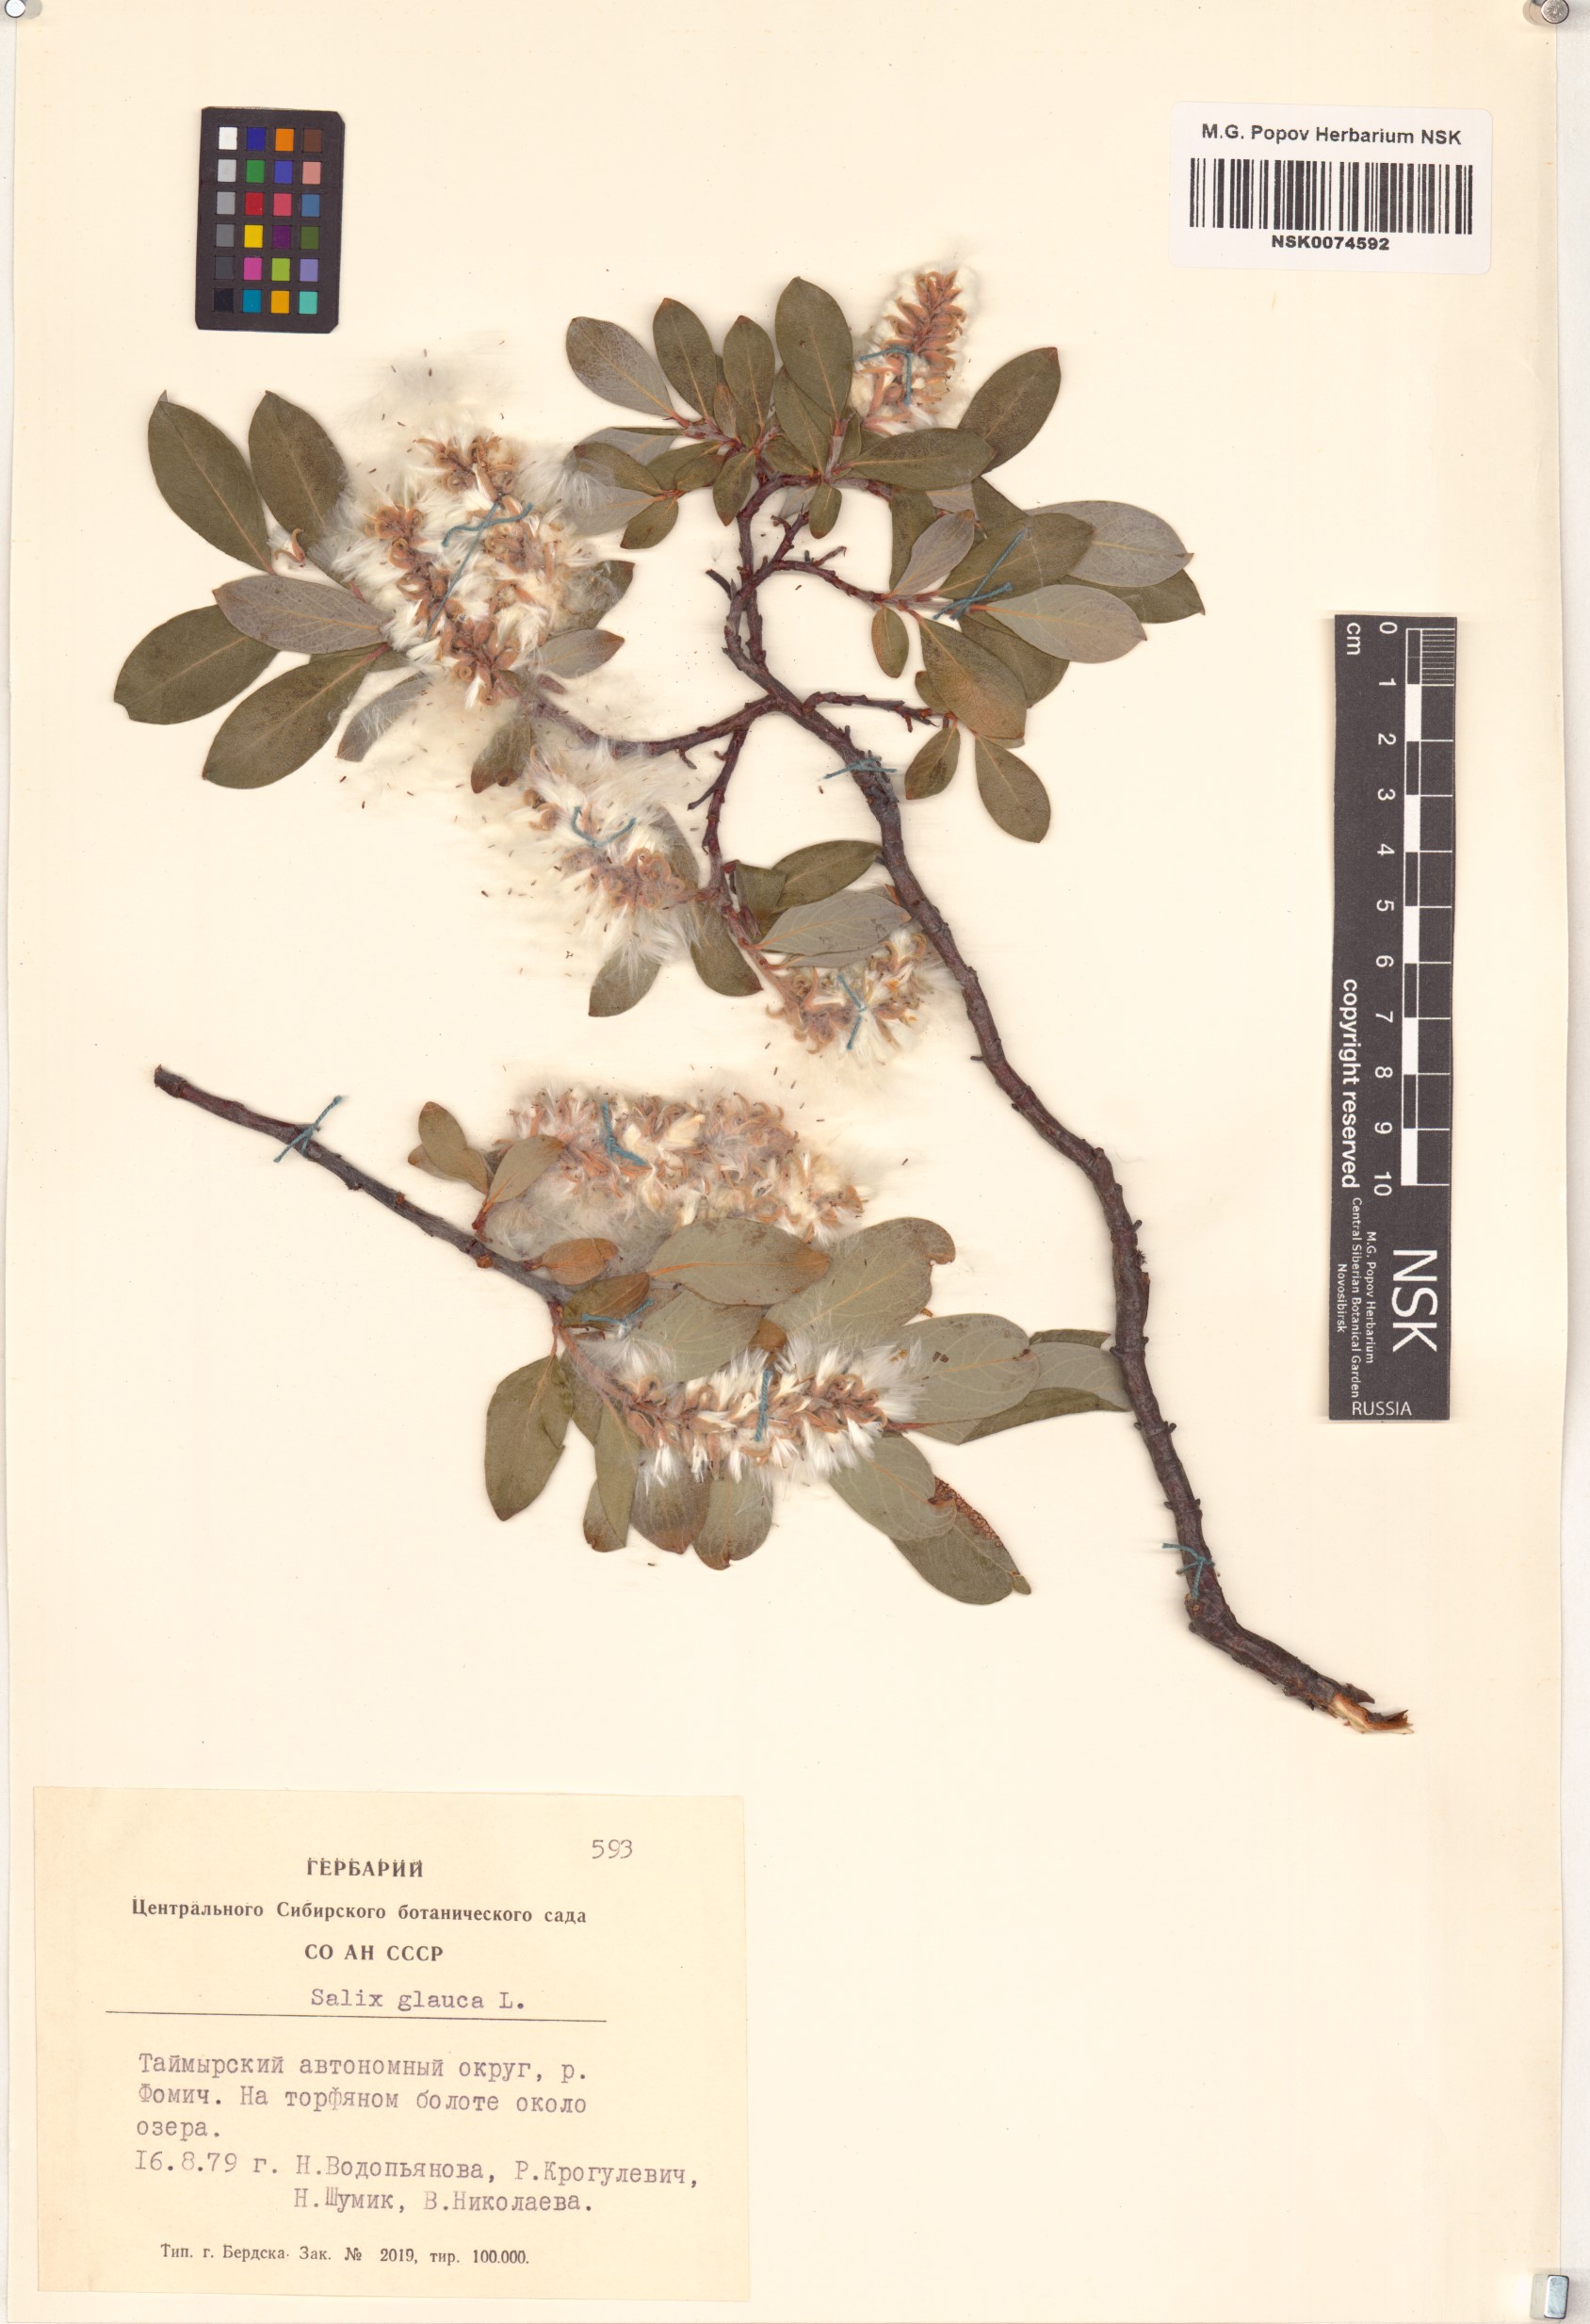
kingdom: Plantae
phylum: Tracheophyta
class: Magnoliopsida
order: Malpighiales
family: Salicaceae
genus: Salix
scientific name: Salix glauca
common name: Glaucous willow
